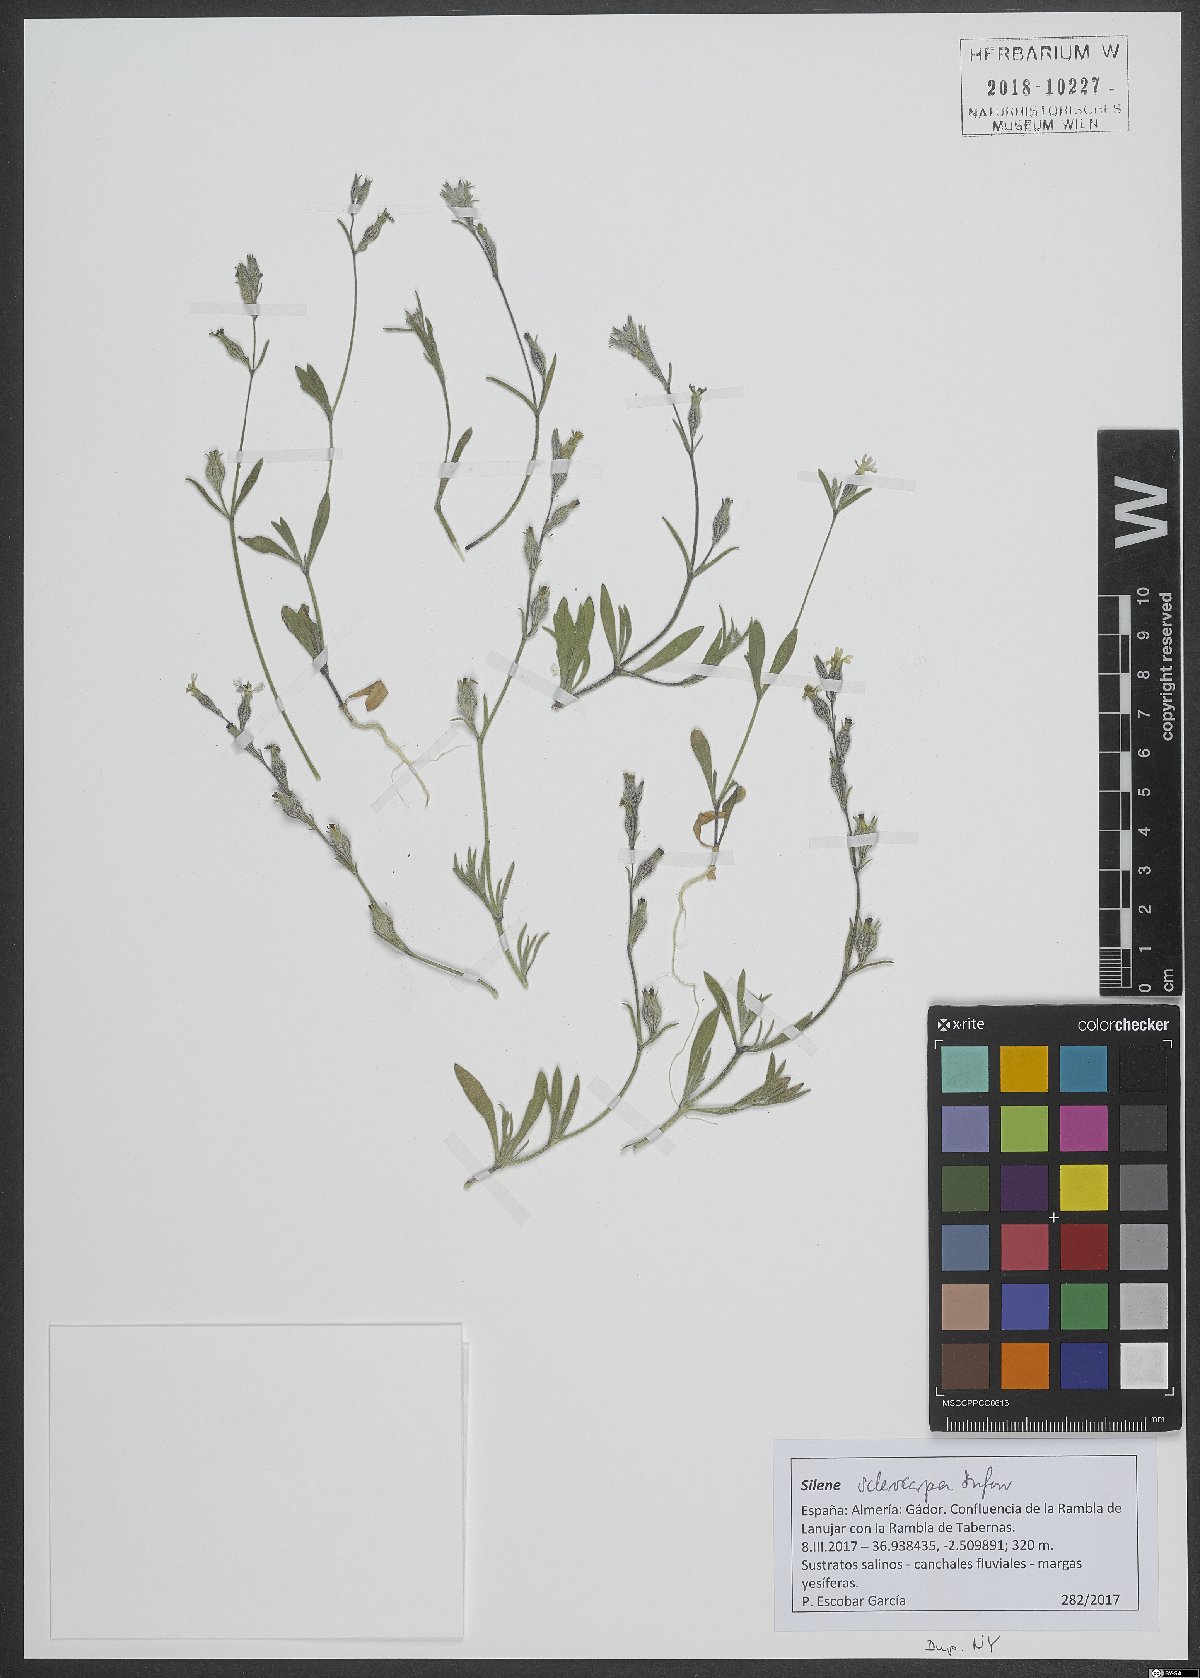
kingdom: Plantae
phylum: Tracheophyta
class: Magnoliopsida
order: Caryophyllales
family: Caryophyllaceae
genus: Silene
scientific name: Silene sclerocarpa
